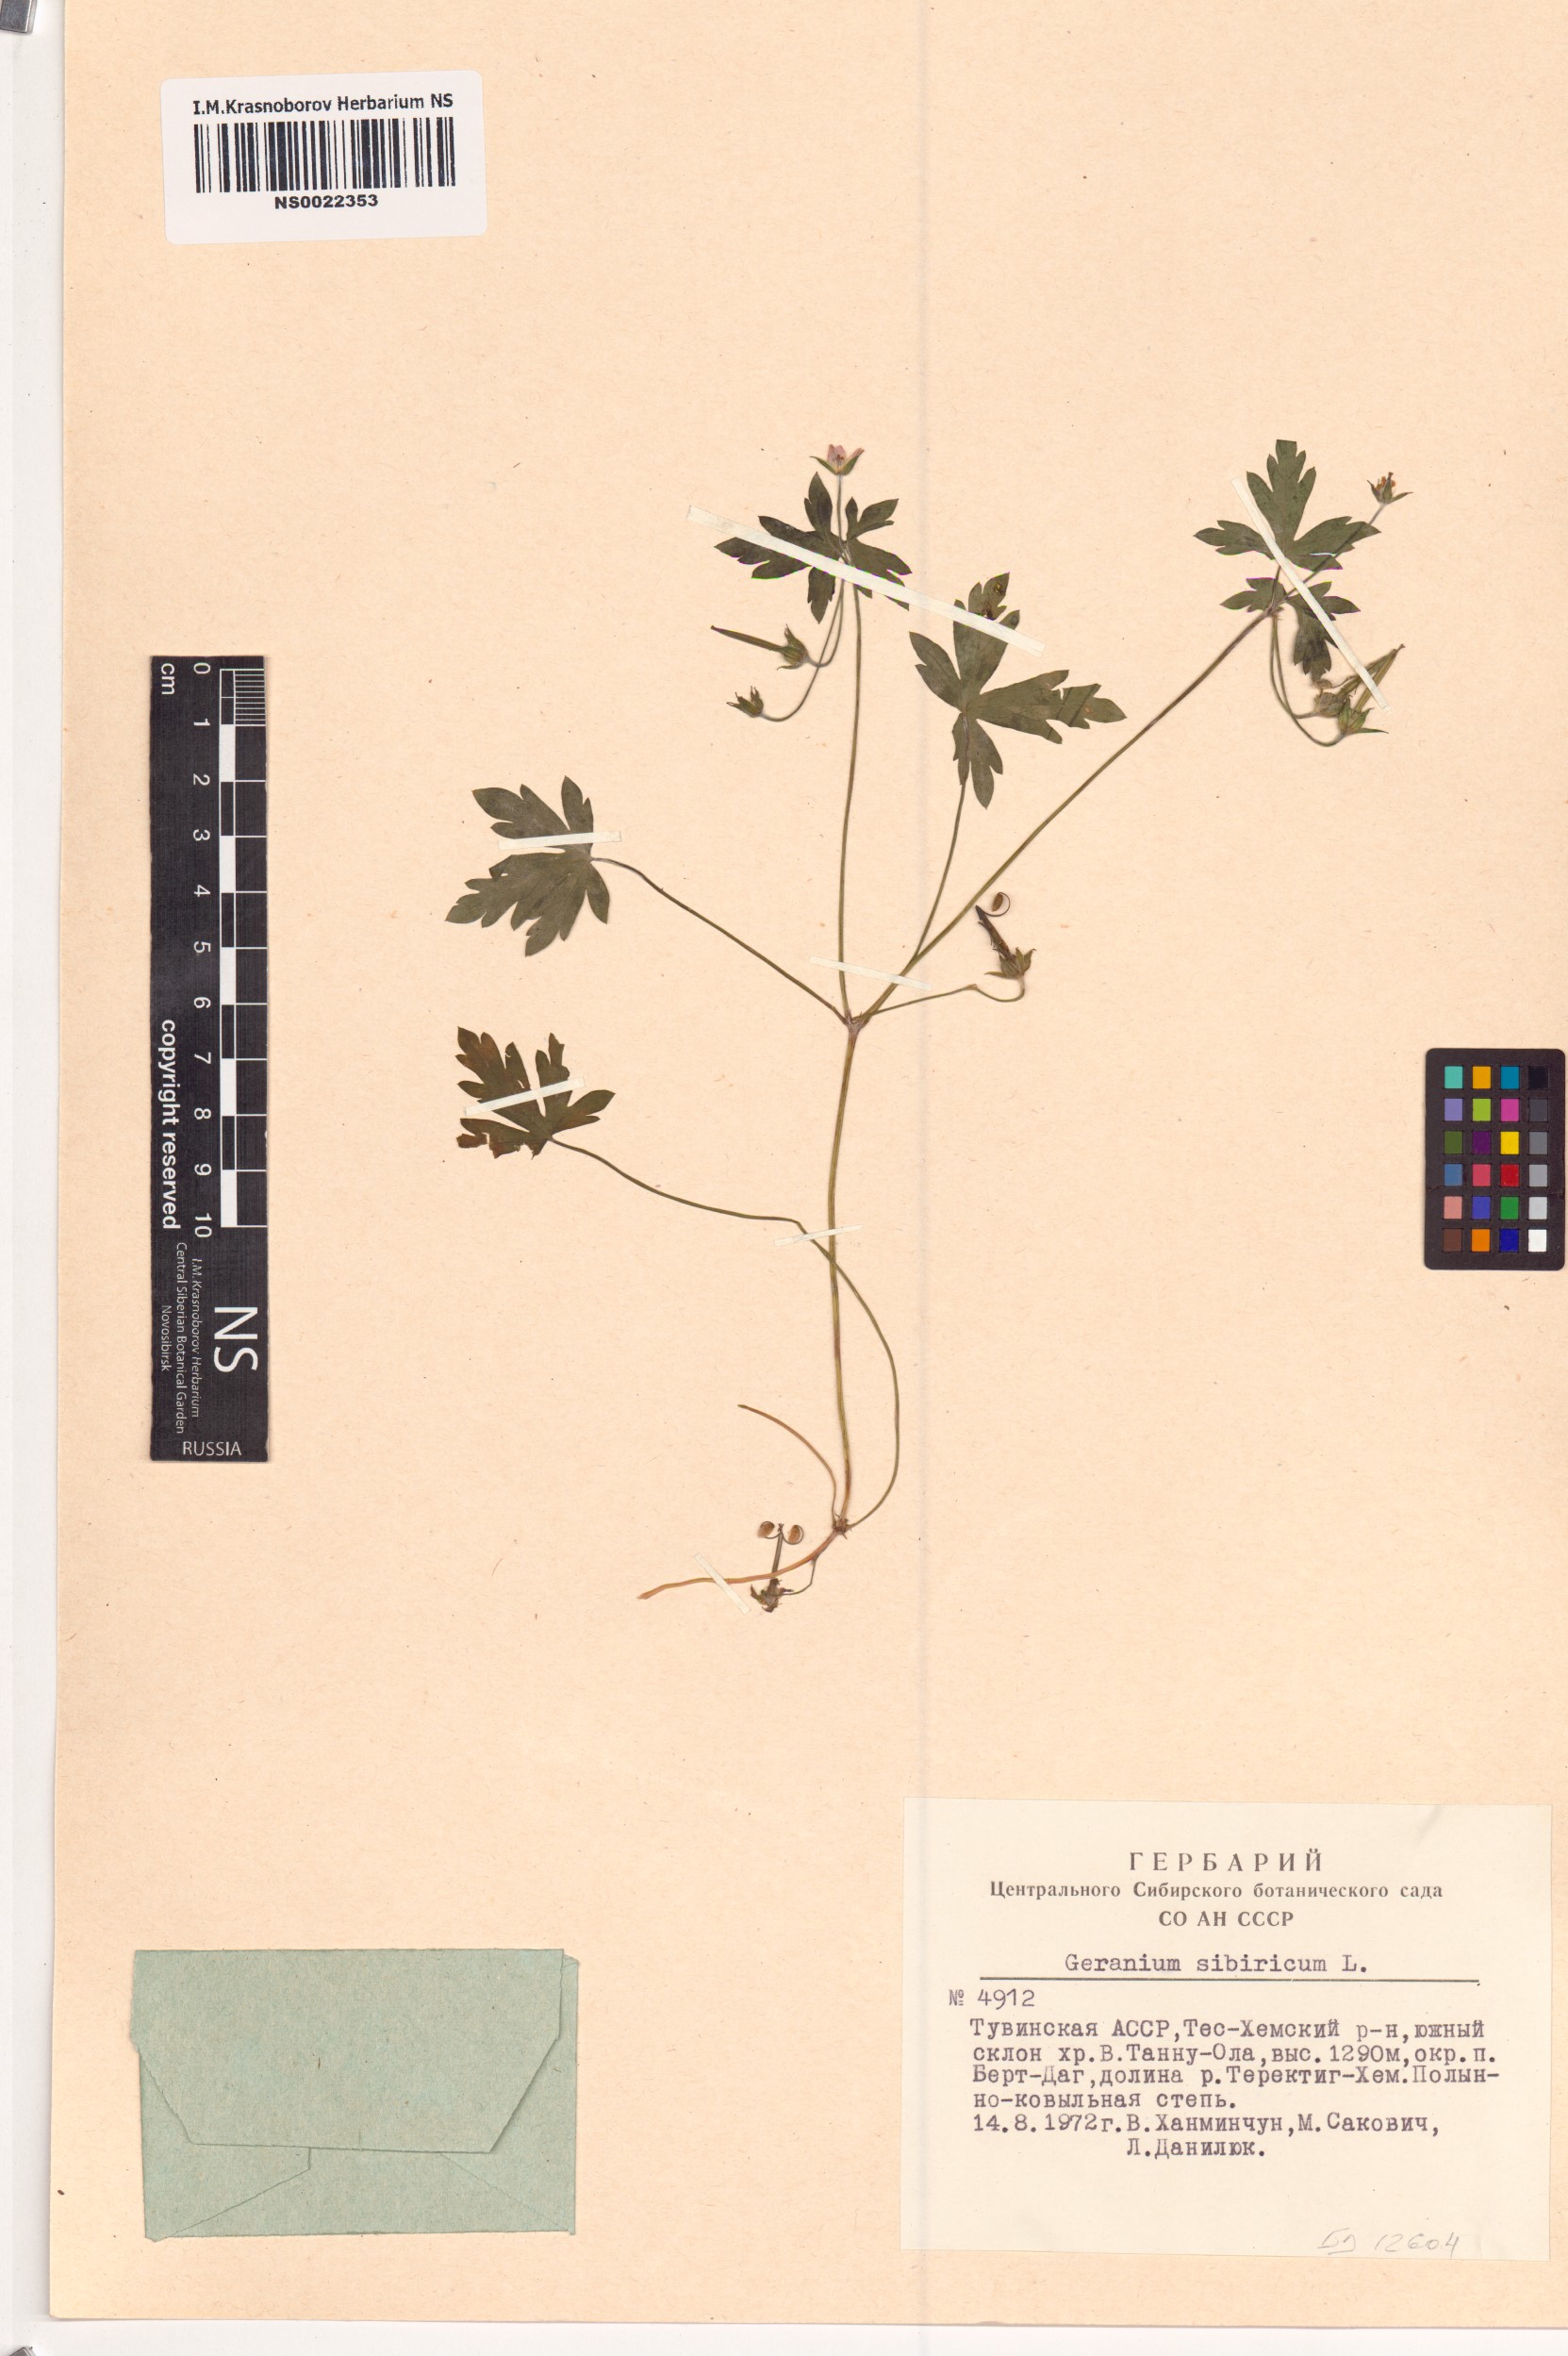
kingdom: Plantae
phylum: Tracheophyta
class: Magnoliopsida
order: Geraniales
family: Geraniaceae
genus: Geranium
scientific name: Geranium sibiricum
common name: Siberian crane's-bill
